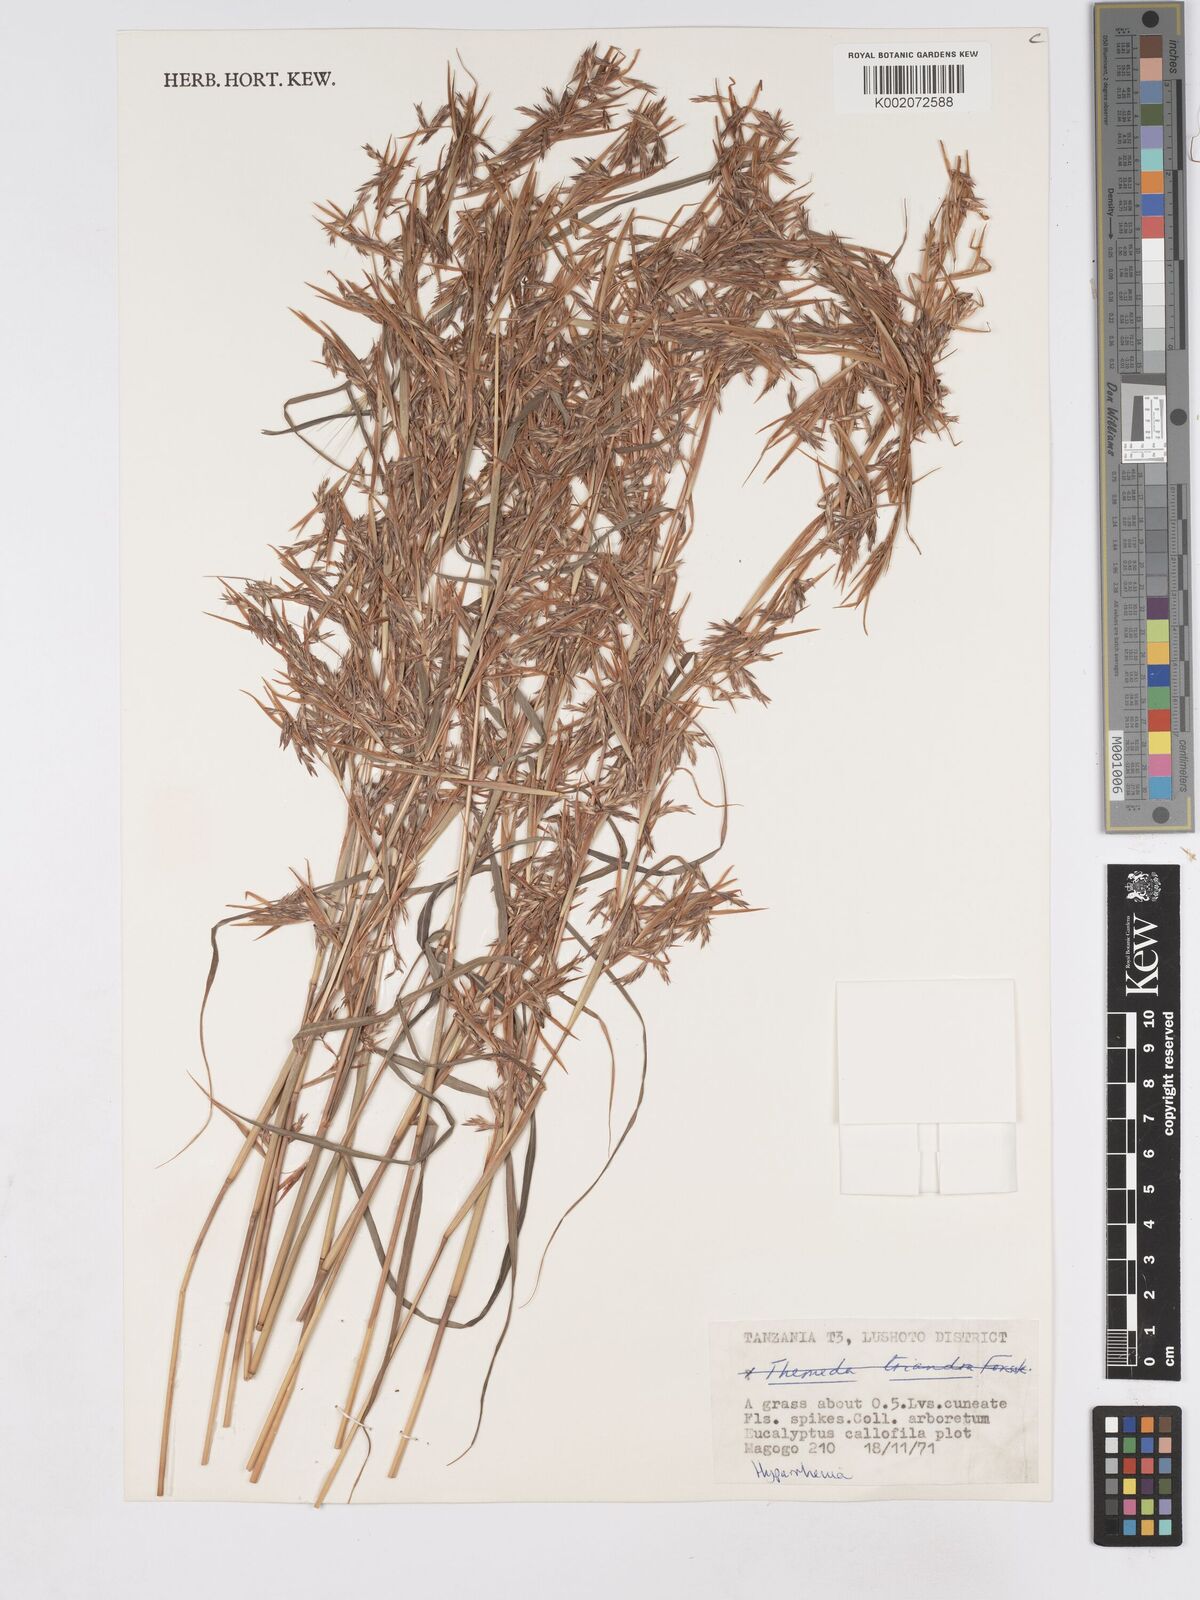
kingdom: Plantae
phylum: Tracheophyta
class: Liliopsida
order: Poales
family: Poaceae
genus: Hyparrhenia
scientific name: Hyparrhenia
